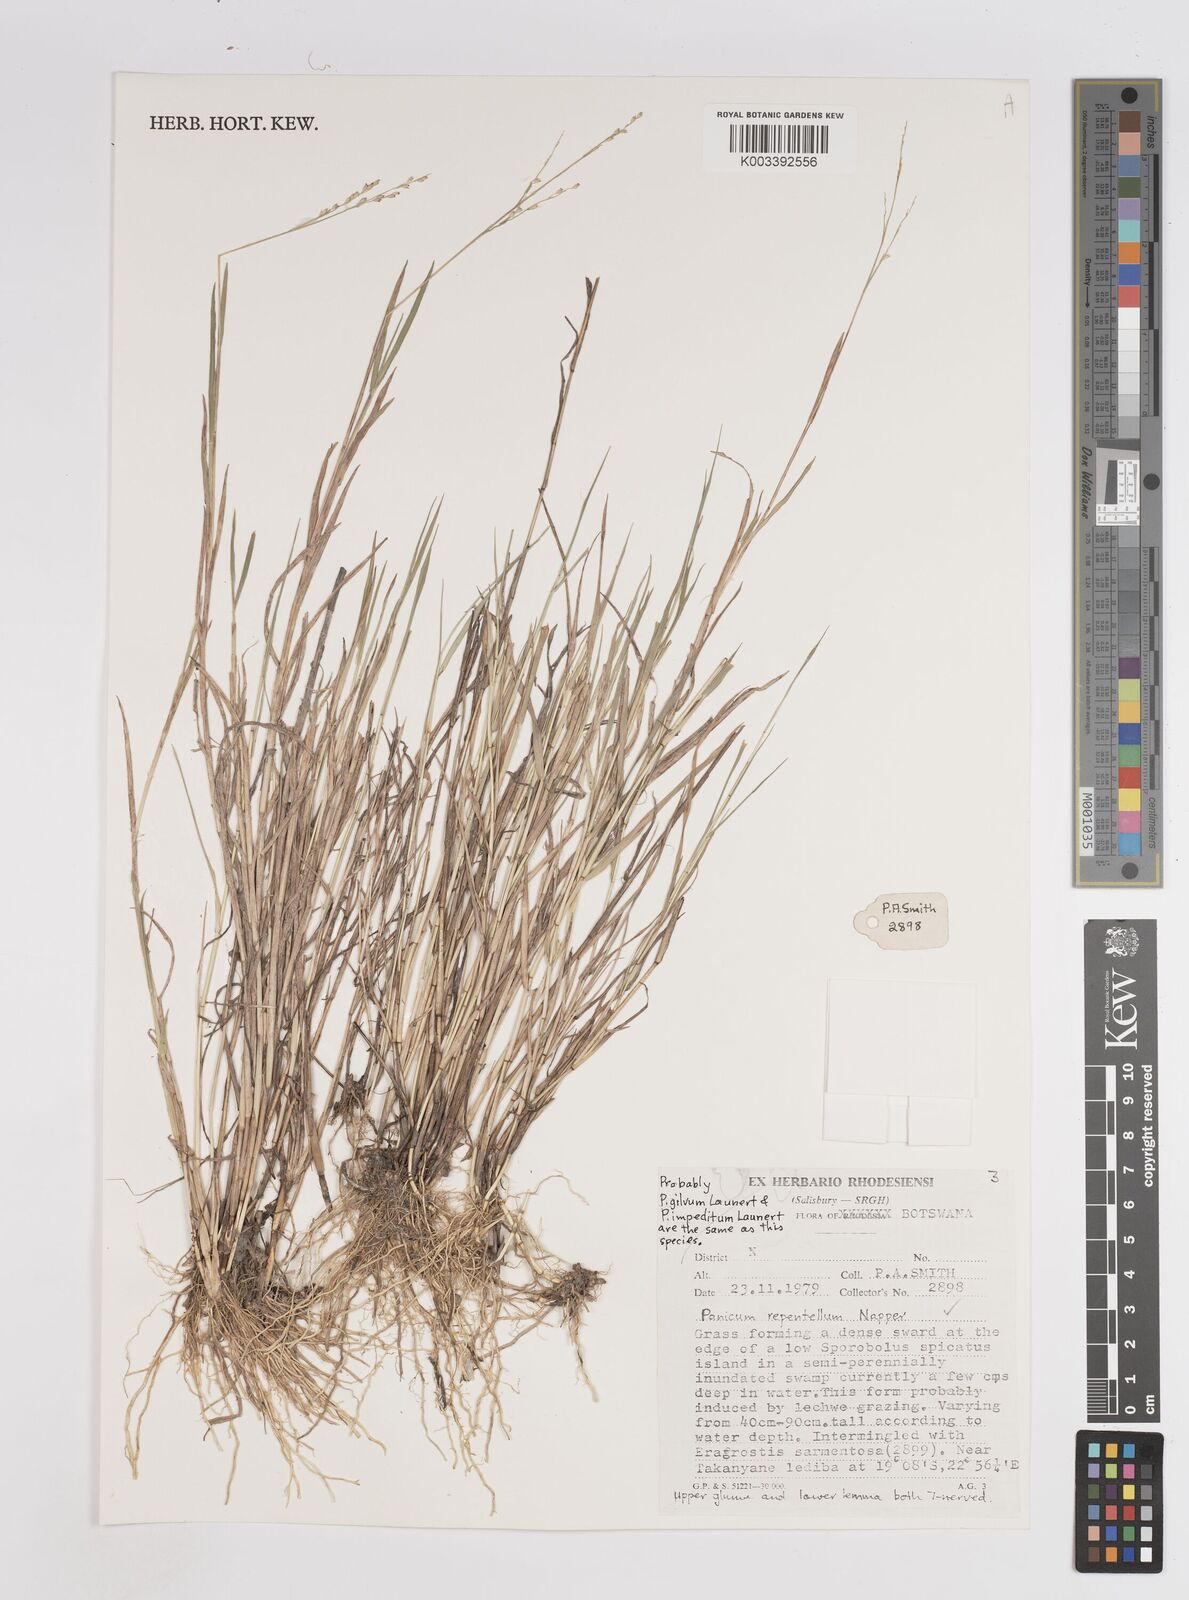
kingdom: Plantae
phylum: Tracheophyta
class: Liliopsida
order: Poales
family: Poaceae
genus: Panicum
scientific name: Panicum hygrocharis
